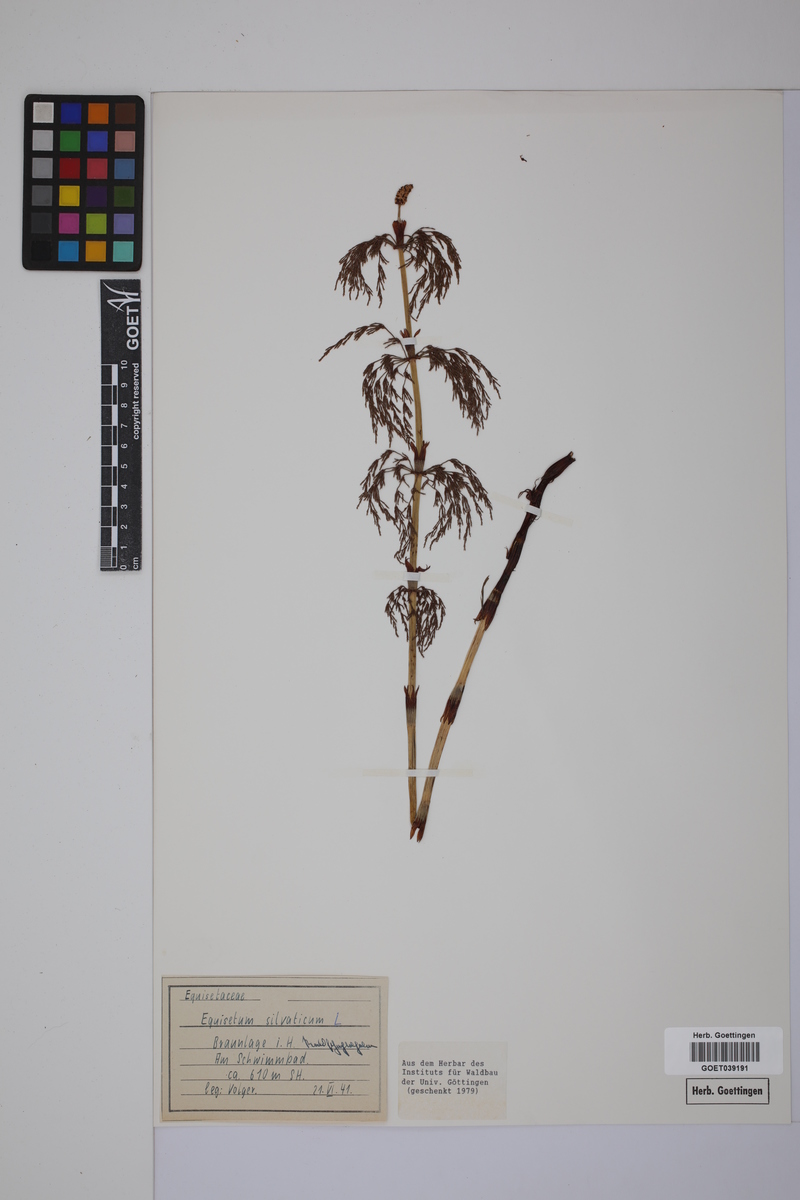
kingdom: Plantae
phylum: Tracheophyta
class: Polypodiopsida
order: Equisetales
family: Equisetaceae
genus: Equisetum
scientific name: Equisetum sylvaticum
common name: Wood horsetail
